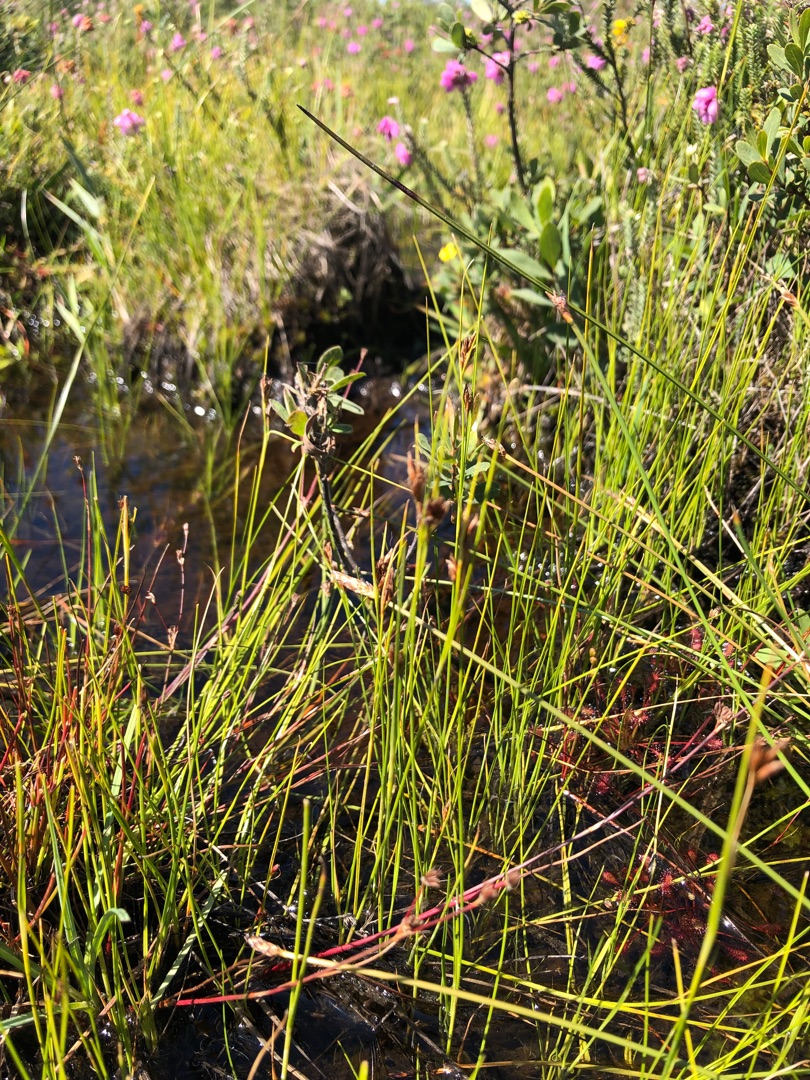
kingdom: Plantae
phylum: Tracheophyta
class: Liliopsida
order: Poales
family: Cyperaceae
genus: Rhynchospora
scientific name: Rhynchospora fusca
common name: Brun næbfrø
